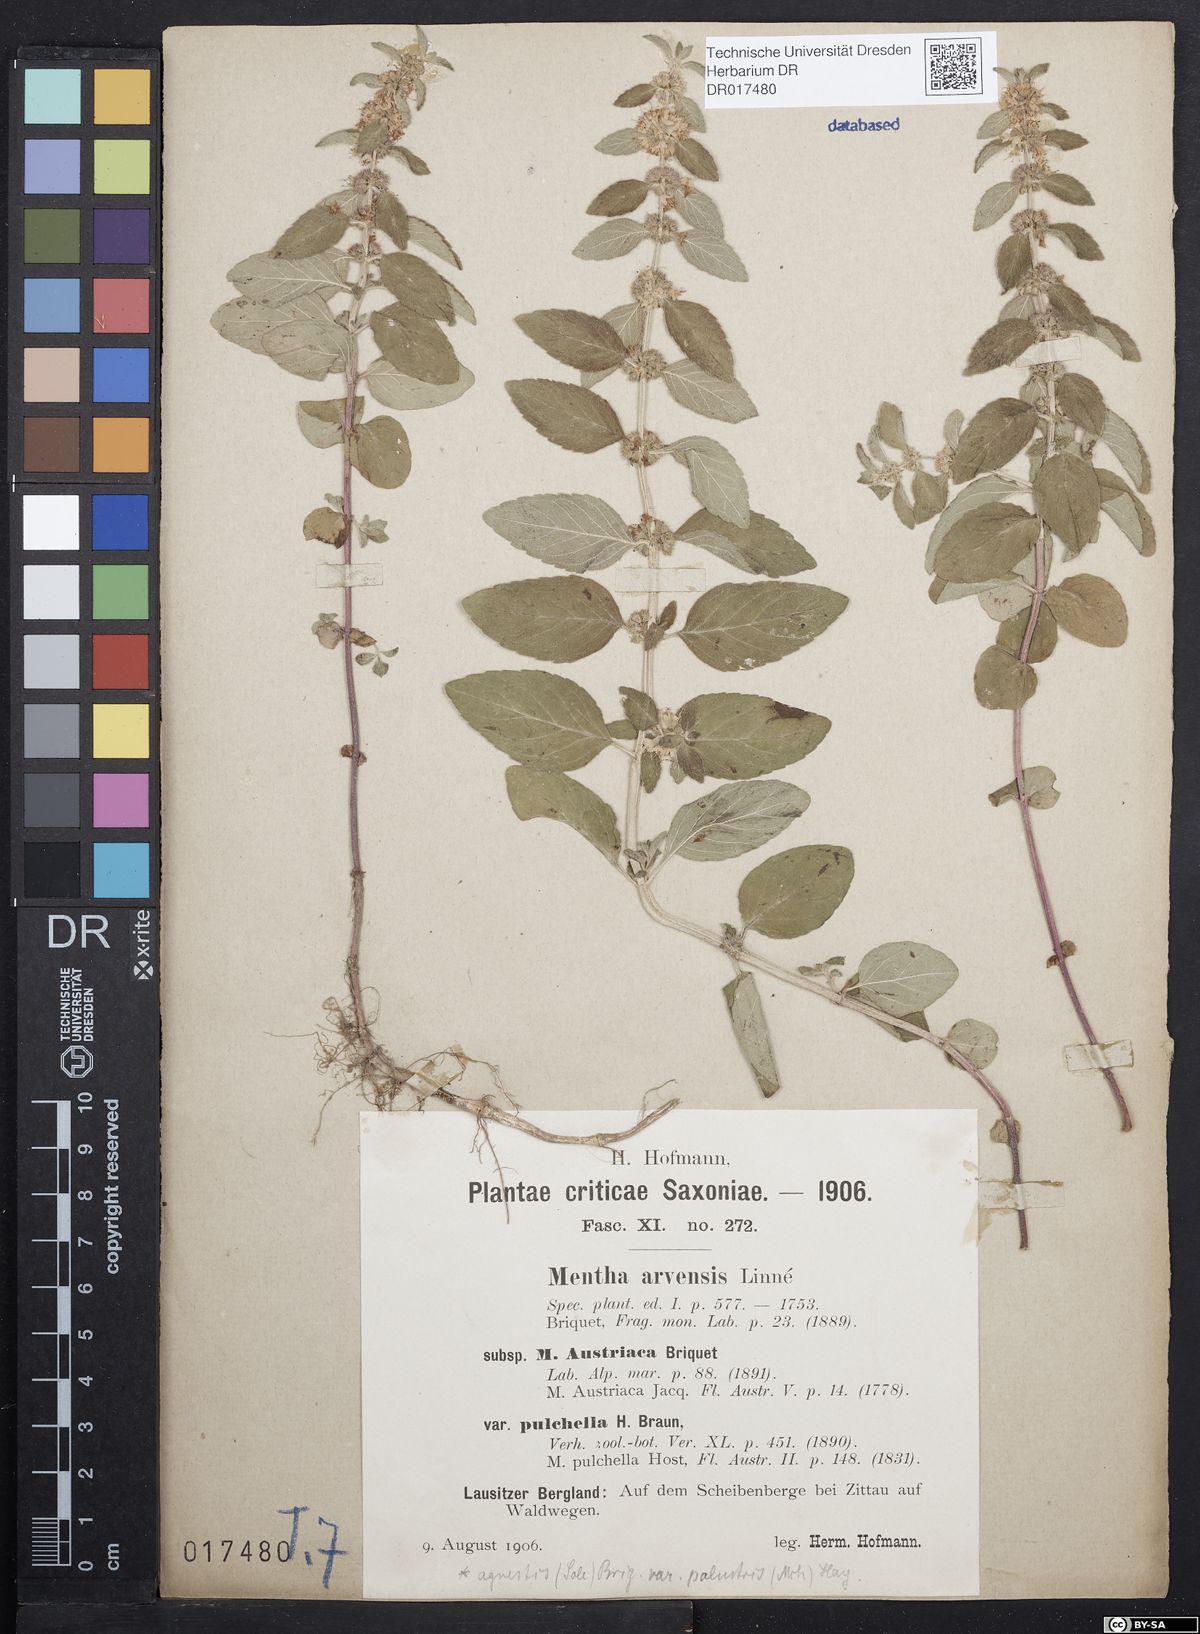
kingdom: Plantae
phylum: Tracheophyta
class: Magnoliopsida
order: Lamiales
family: Lamiaceae
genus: Mentha
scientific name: Mentha arvensis
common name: Corn mint
